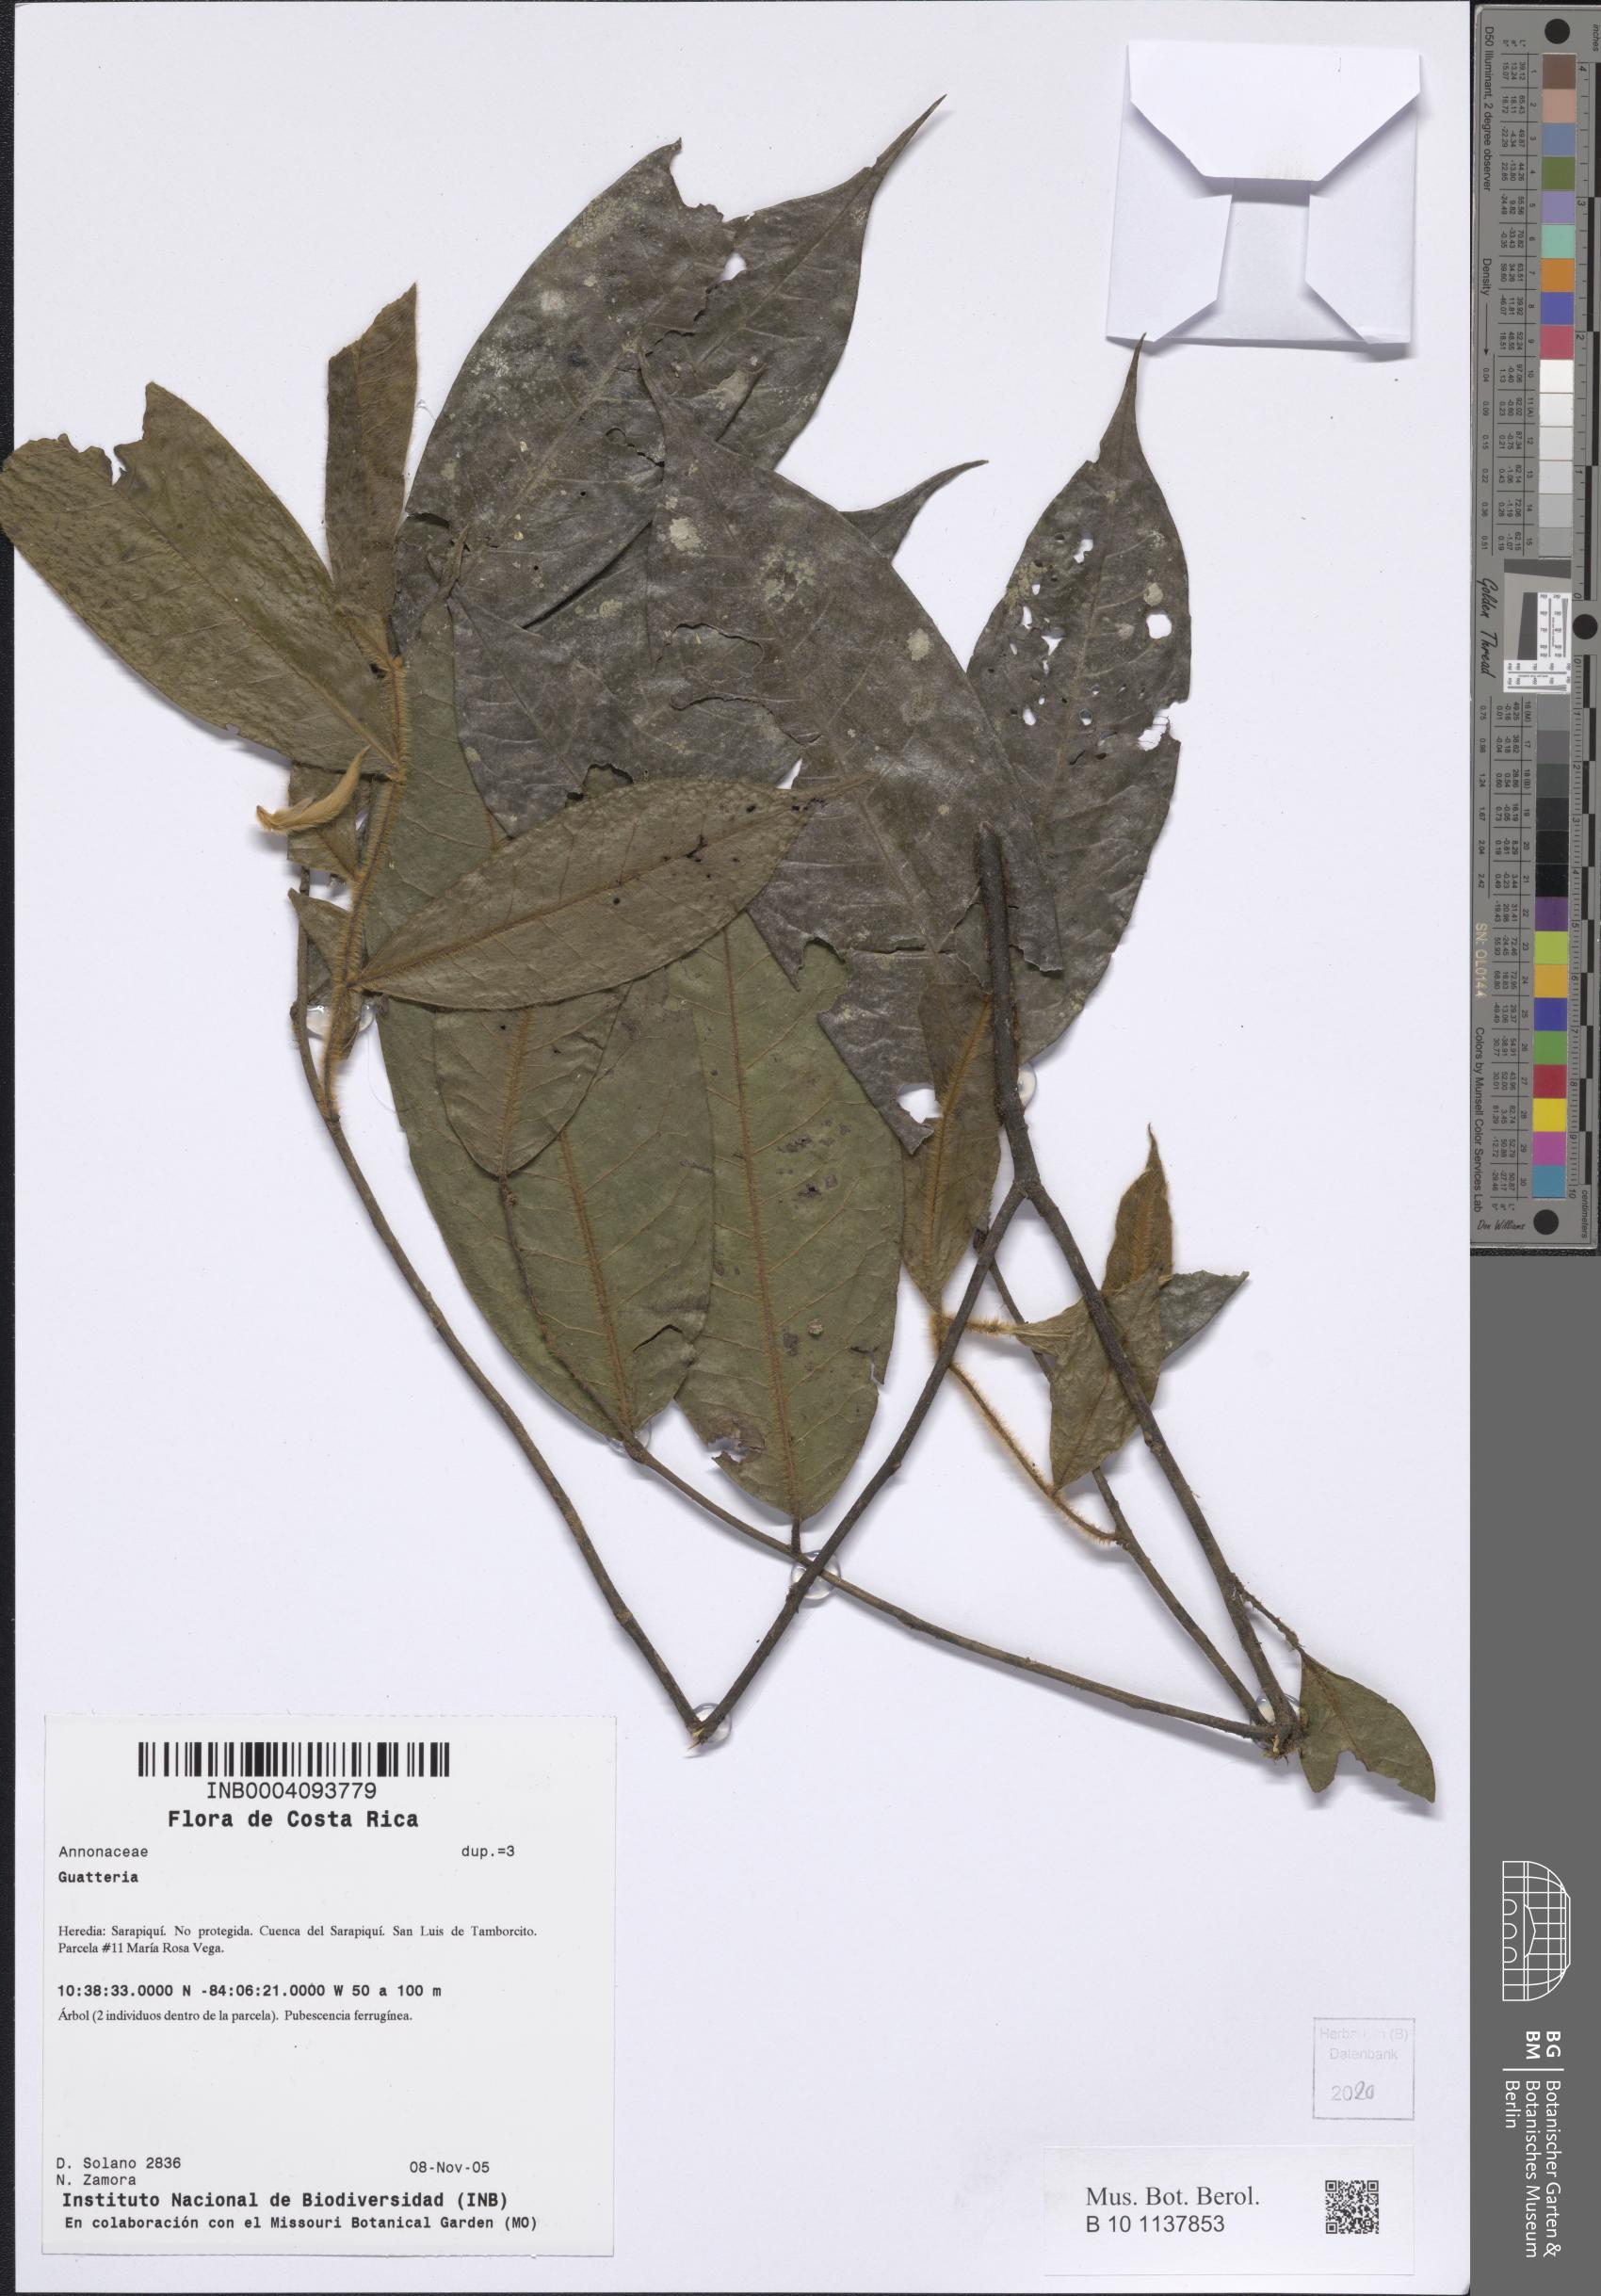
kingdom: Plantae
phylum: Tracheophyta
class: Magnoliopsida
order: Magnoliales
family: Annonaceae
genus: Guatteria
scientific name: Guatteria
